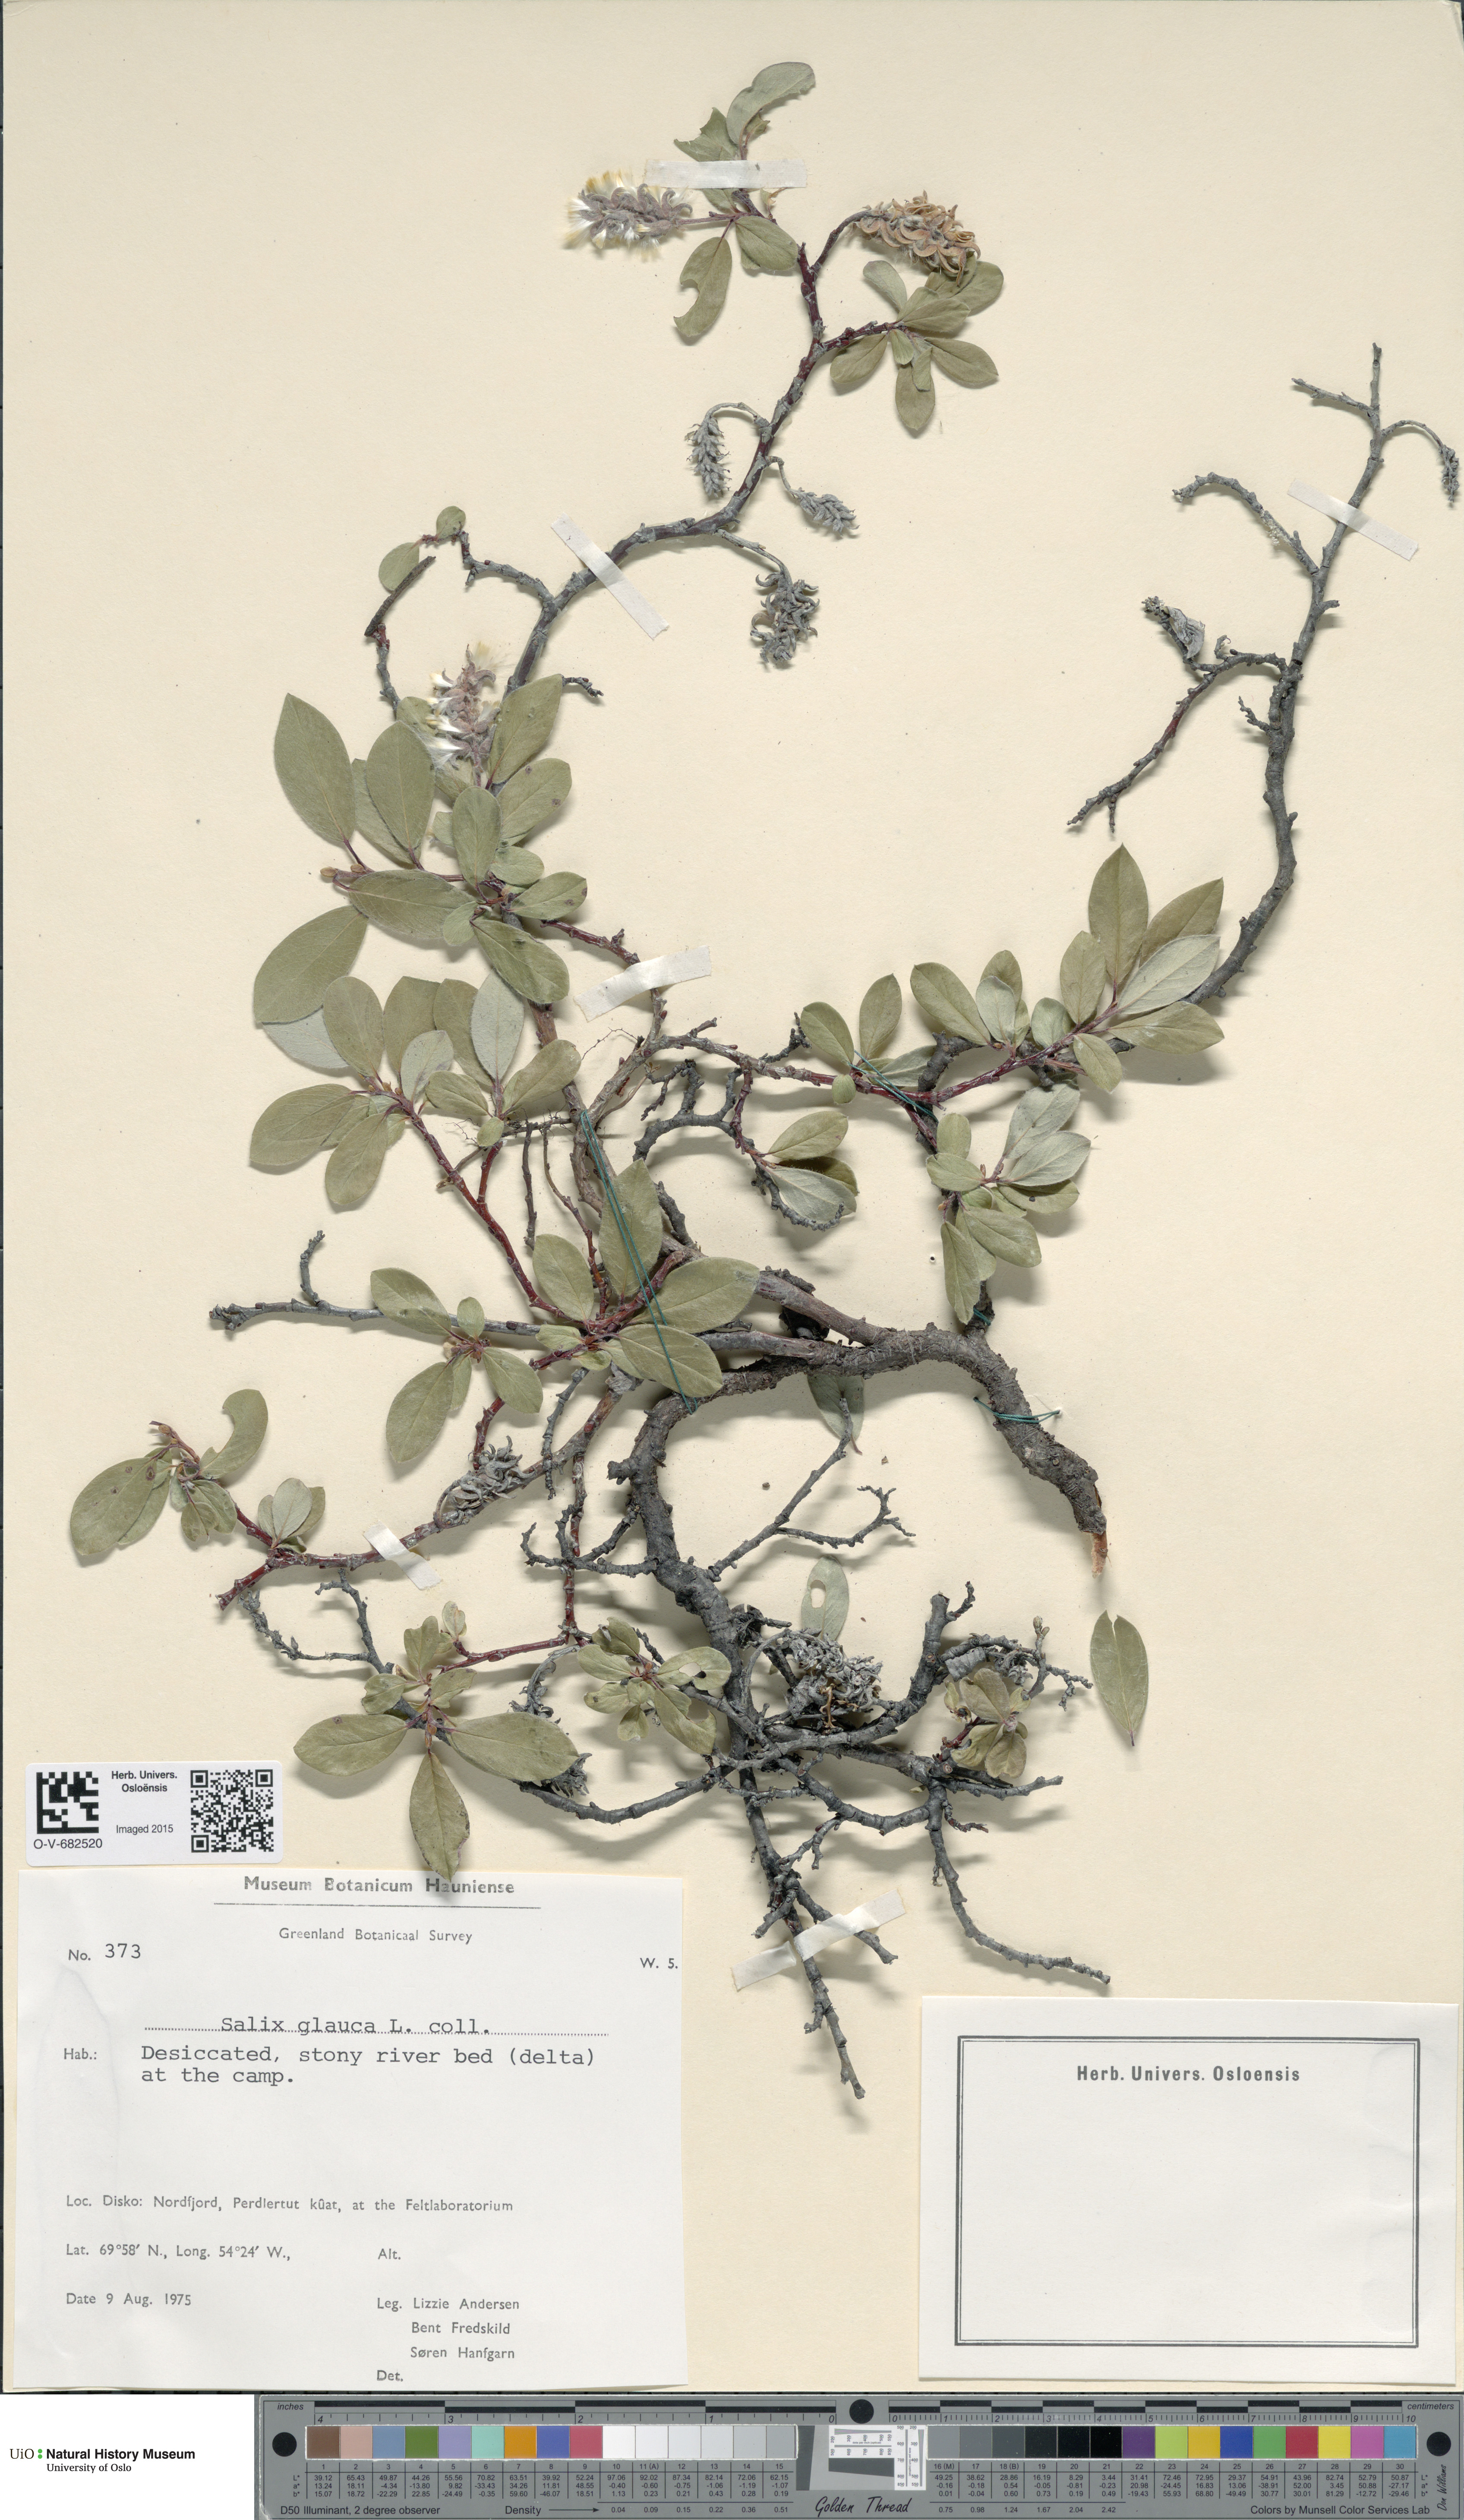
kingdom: Plantae
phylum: Tracheophyta
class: Magnoliopsida
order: Malpighiales
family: Salicaceae
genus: Salix
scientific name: Salix glauca
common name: Glaucous willow
